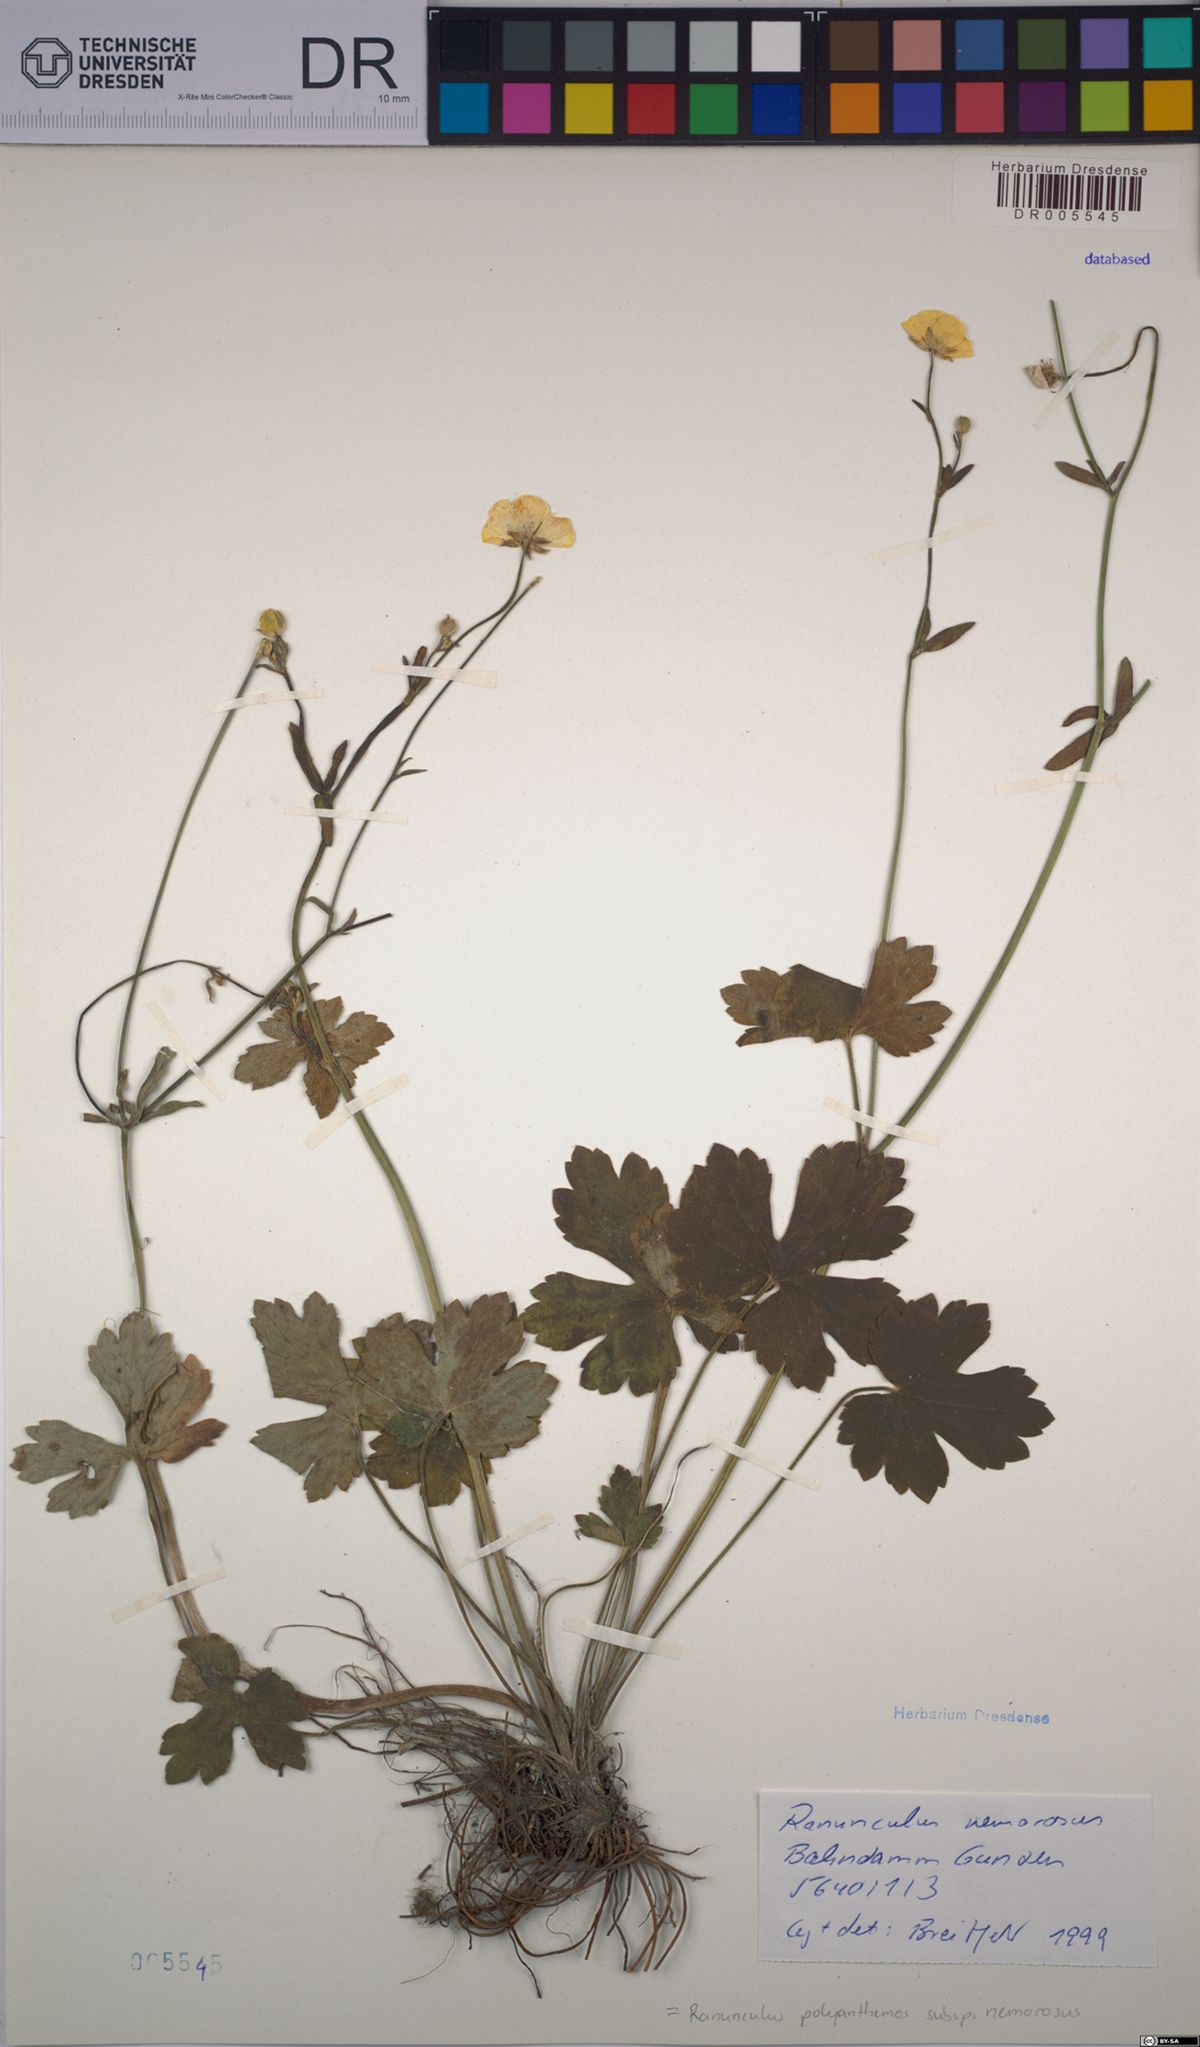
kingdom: Plantae
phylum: Tracheophyta
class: Magnoliopsida
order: Ranunculales
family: Ranunculaceae
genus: Ranunculus
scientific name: Ranunculus polyanthemos
